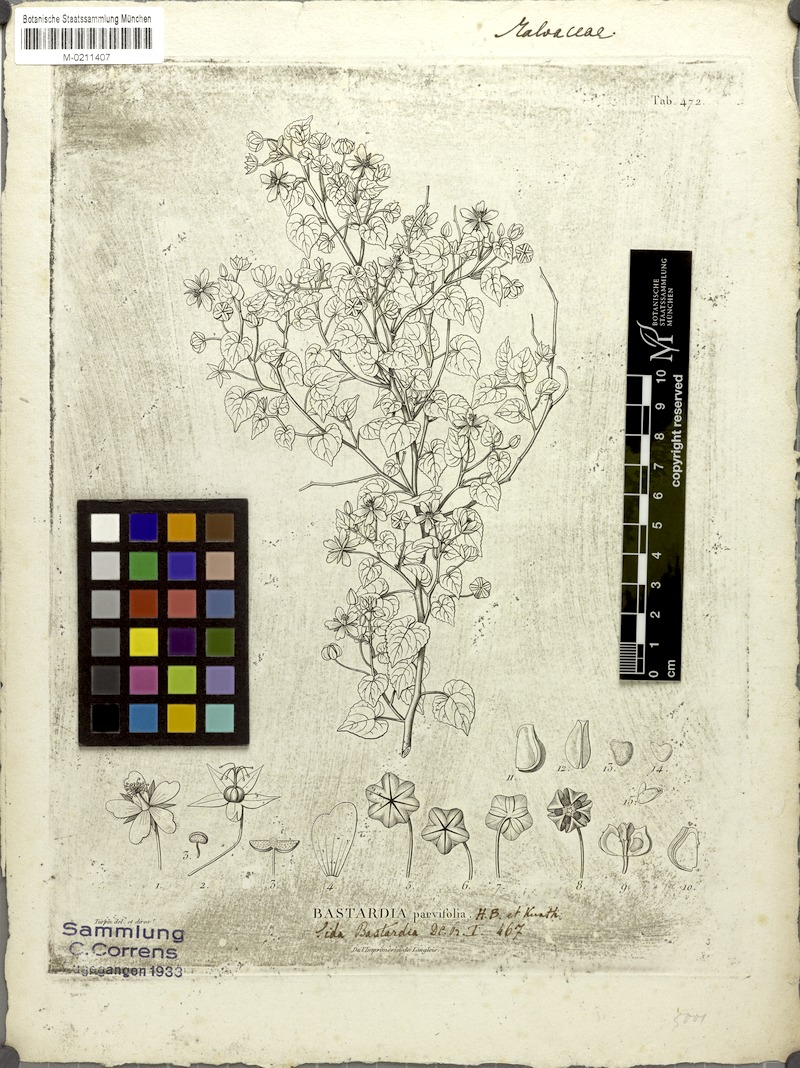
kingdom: Plantae
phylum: Tracheophyta
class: Magnoliopsida
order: Malvales
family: Malvaceae
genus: Abutilon
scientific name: Abutilon viscosum
